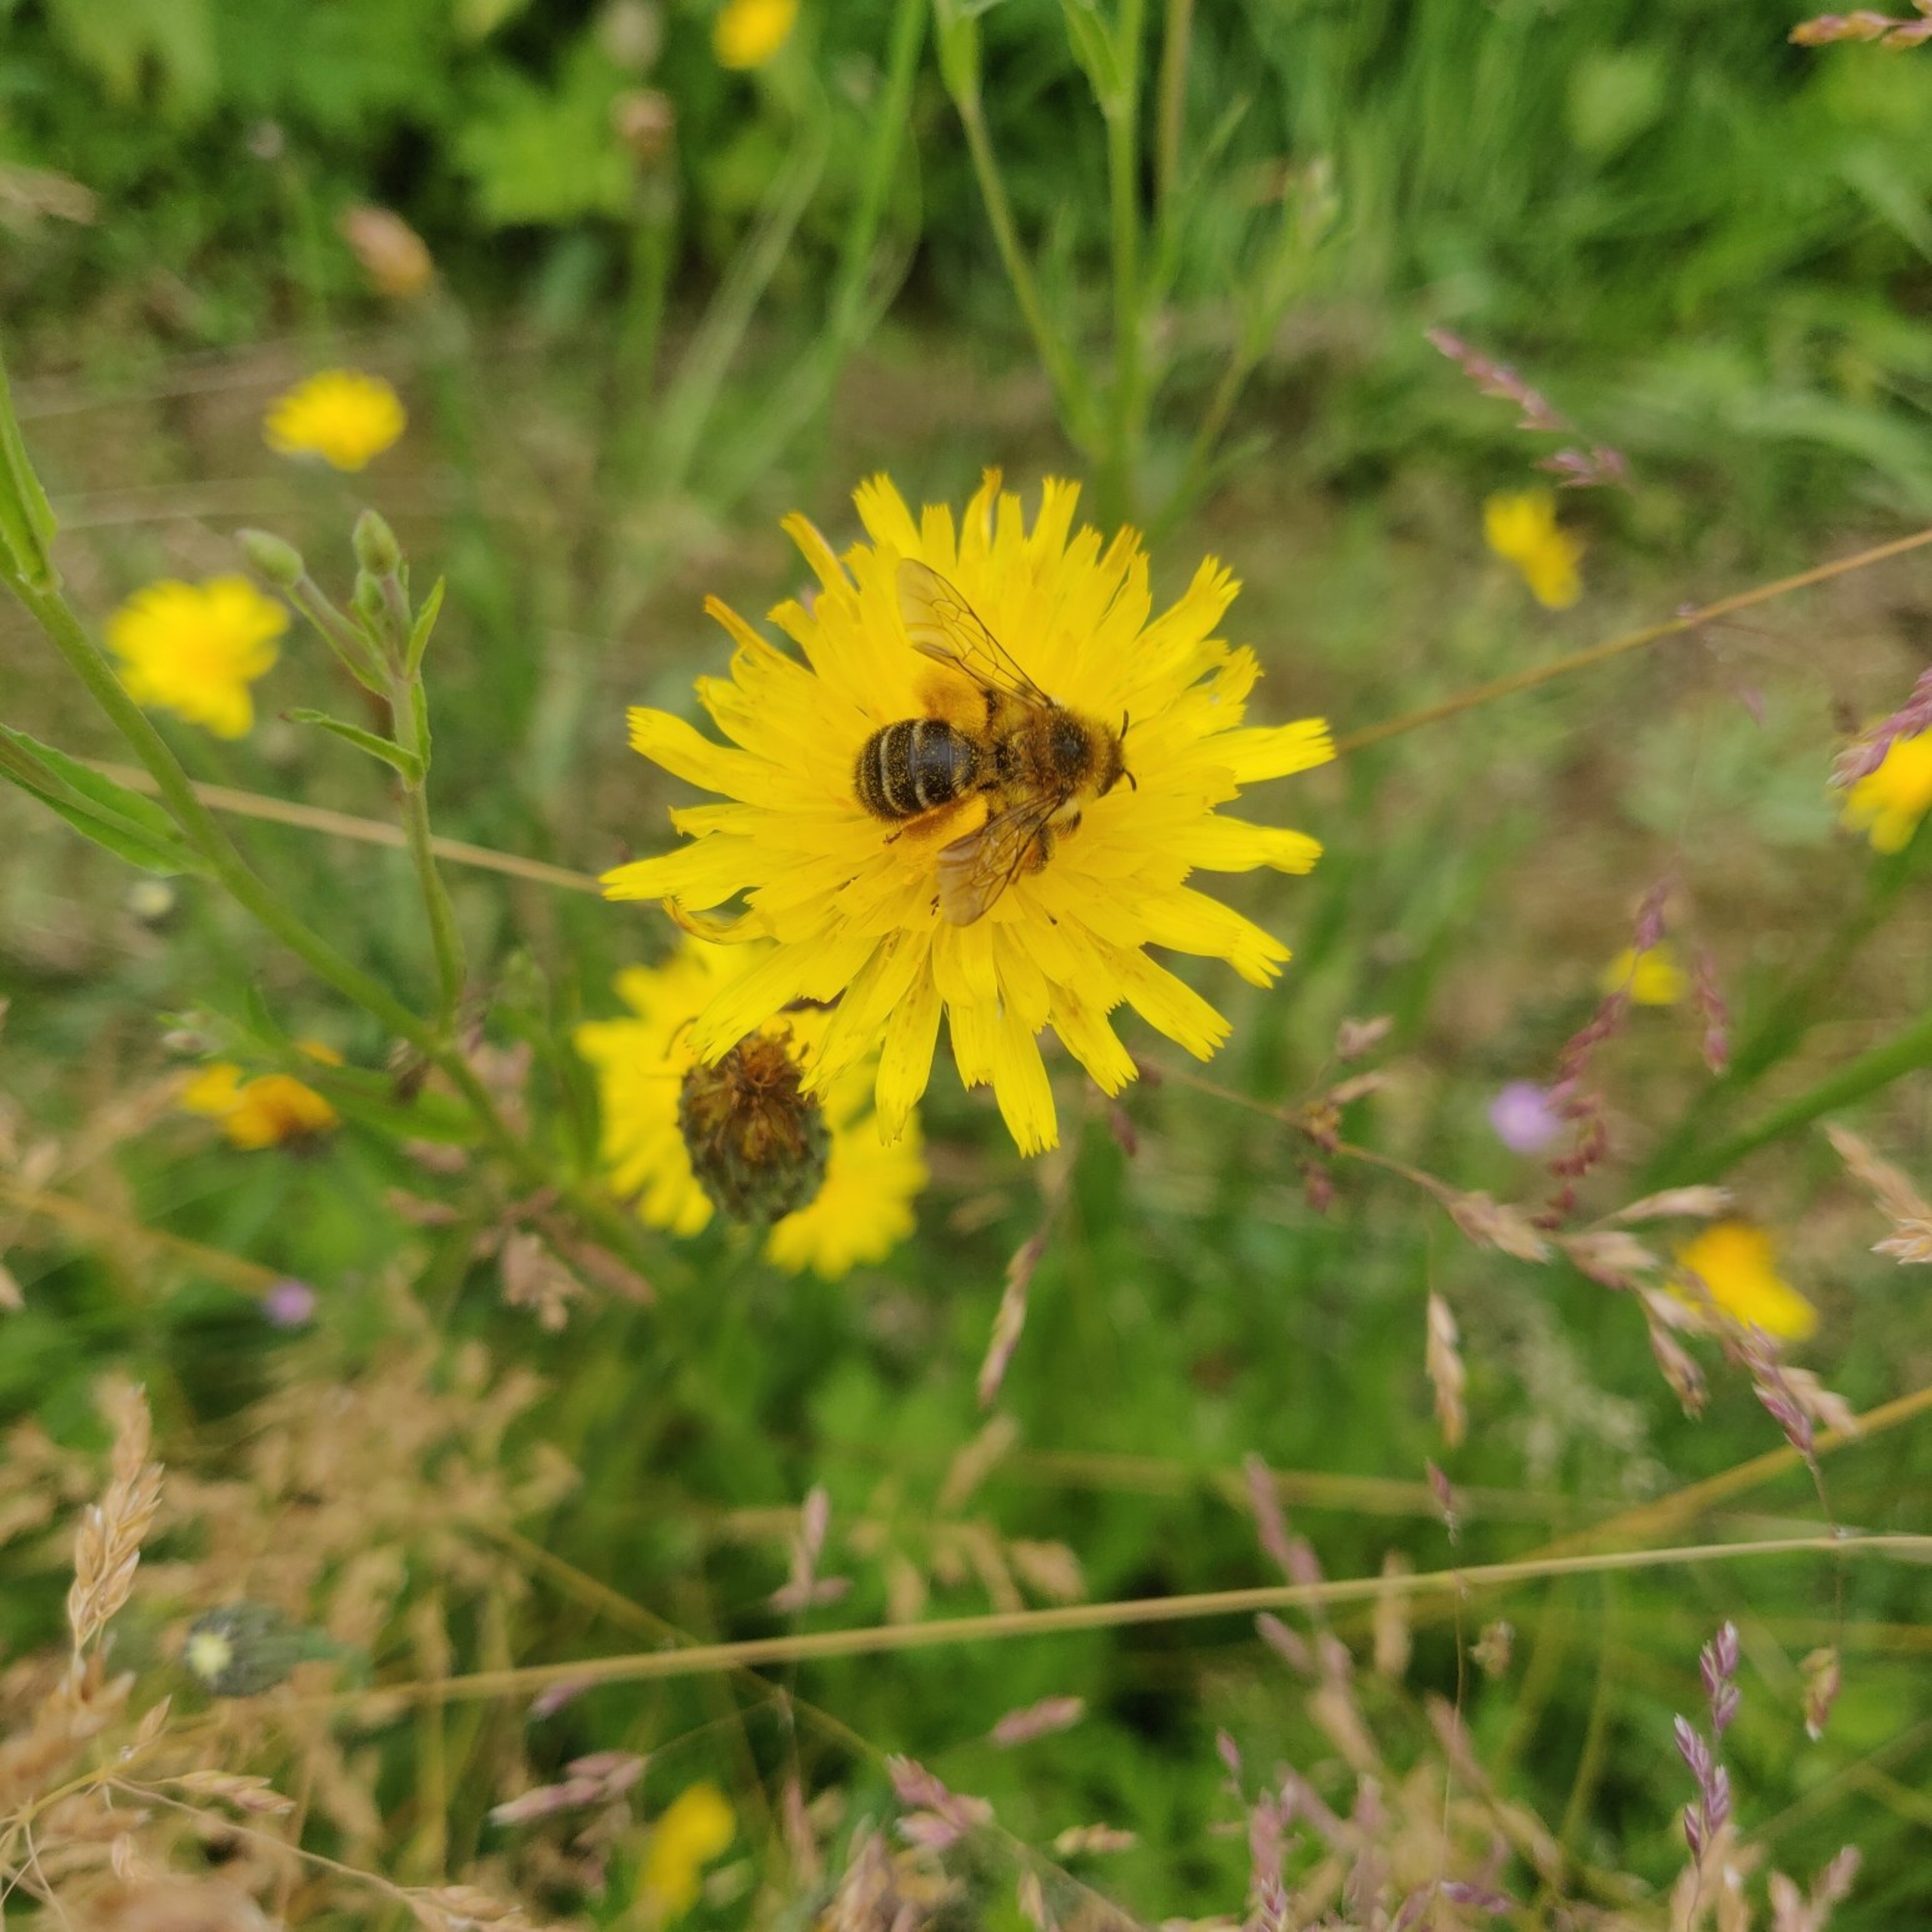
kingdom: Animalia
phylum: Arthropoda
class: Insecta
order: Hymenoptera
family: Melittidae
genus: Dasypoda
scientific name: Dasypoda hirtipes
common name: Pragtbuksebi
